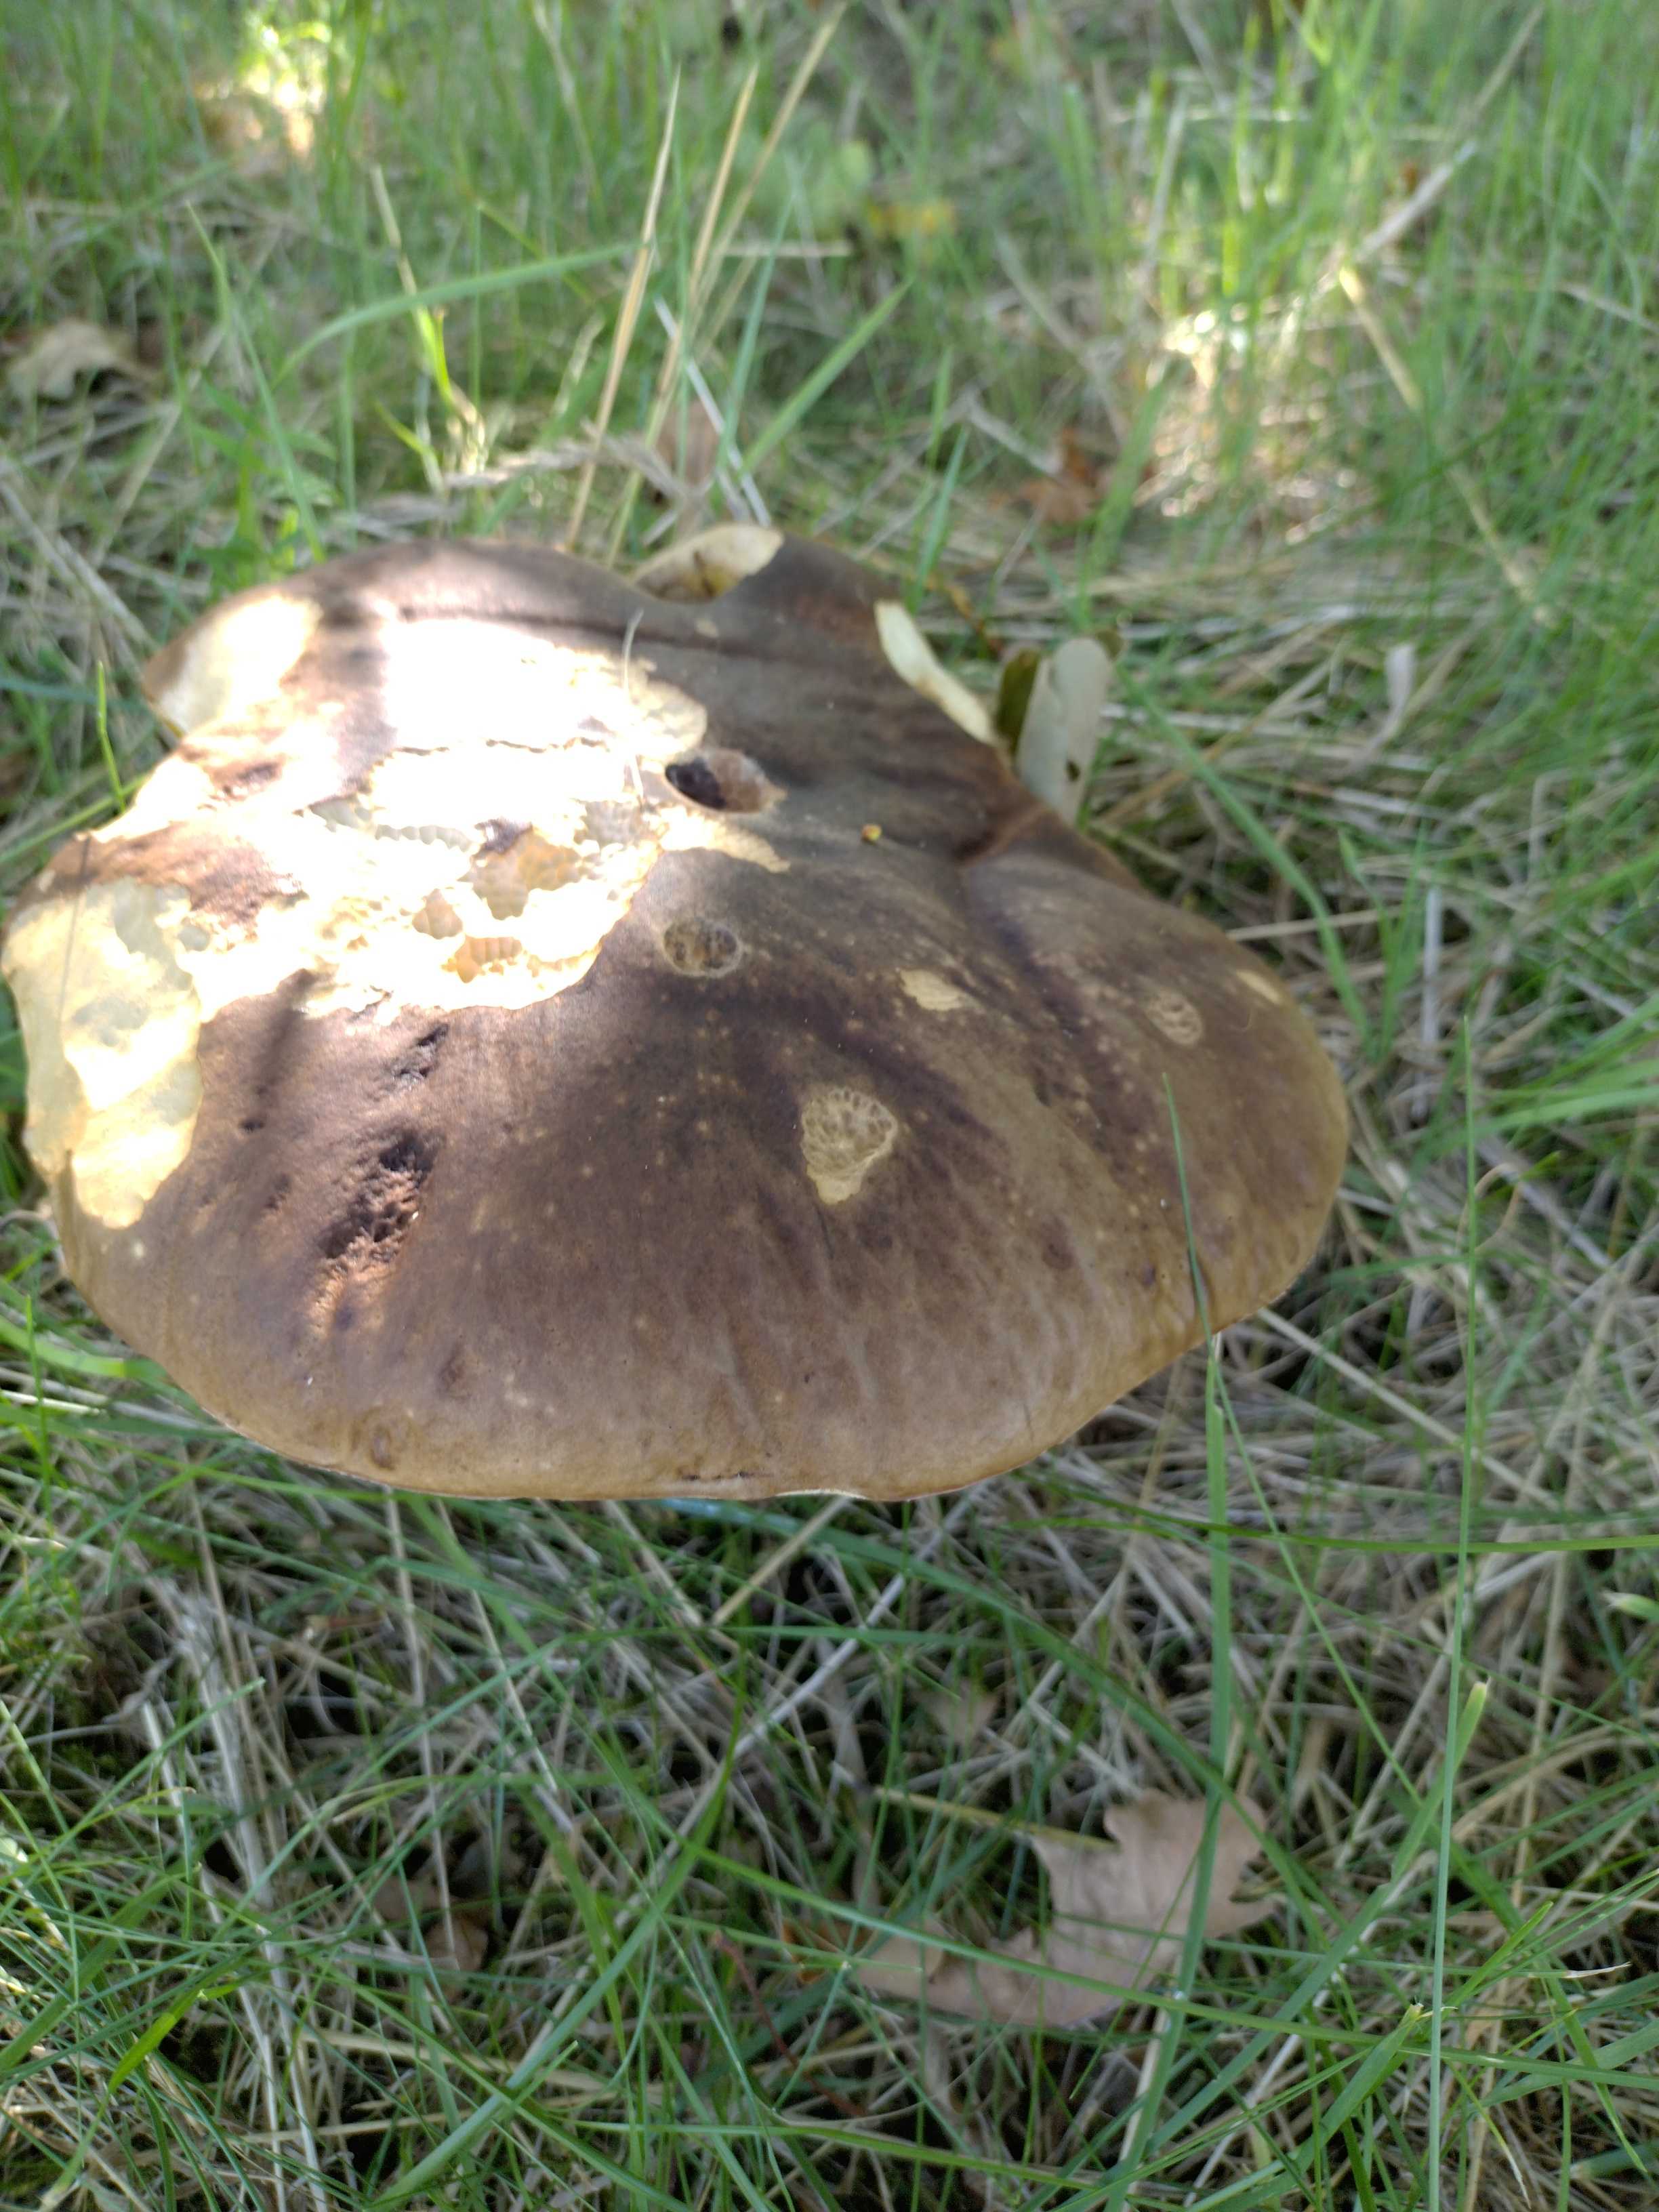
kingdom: Fungi
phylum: Basidiomycota
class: Agaricomycetes
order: Boletales
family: Boletaceae
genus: Boletus
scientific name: Boletus edulis
